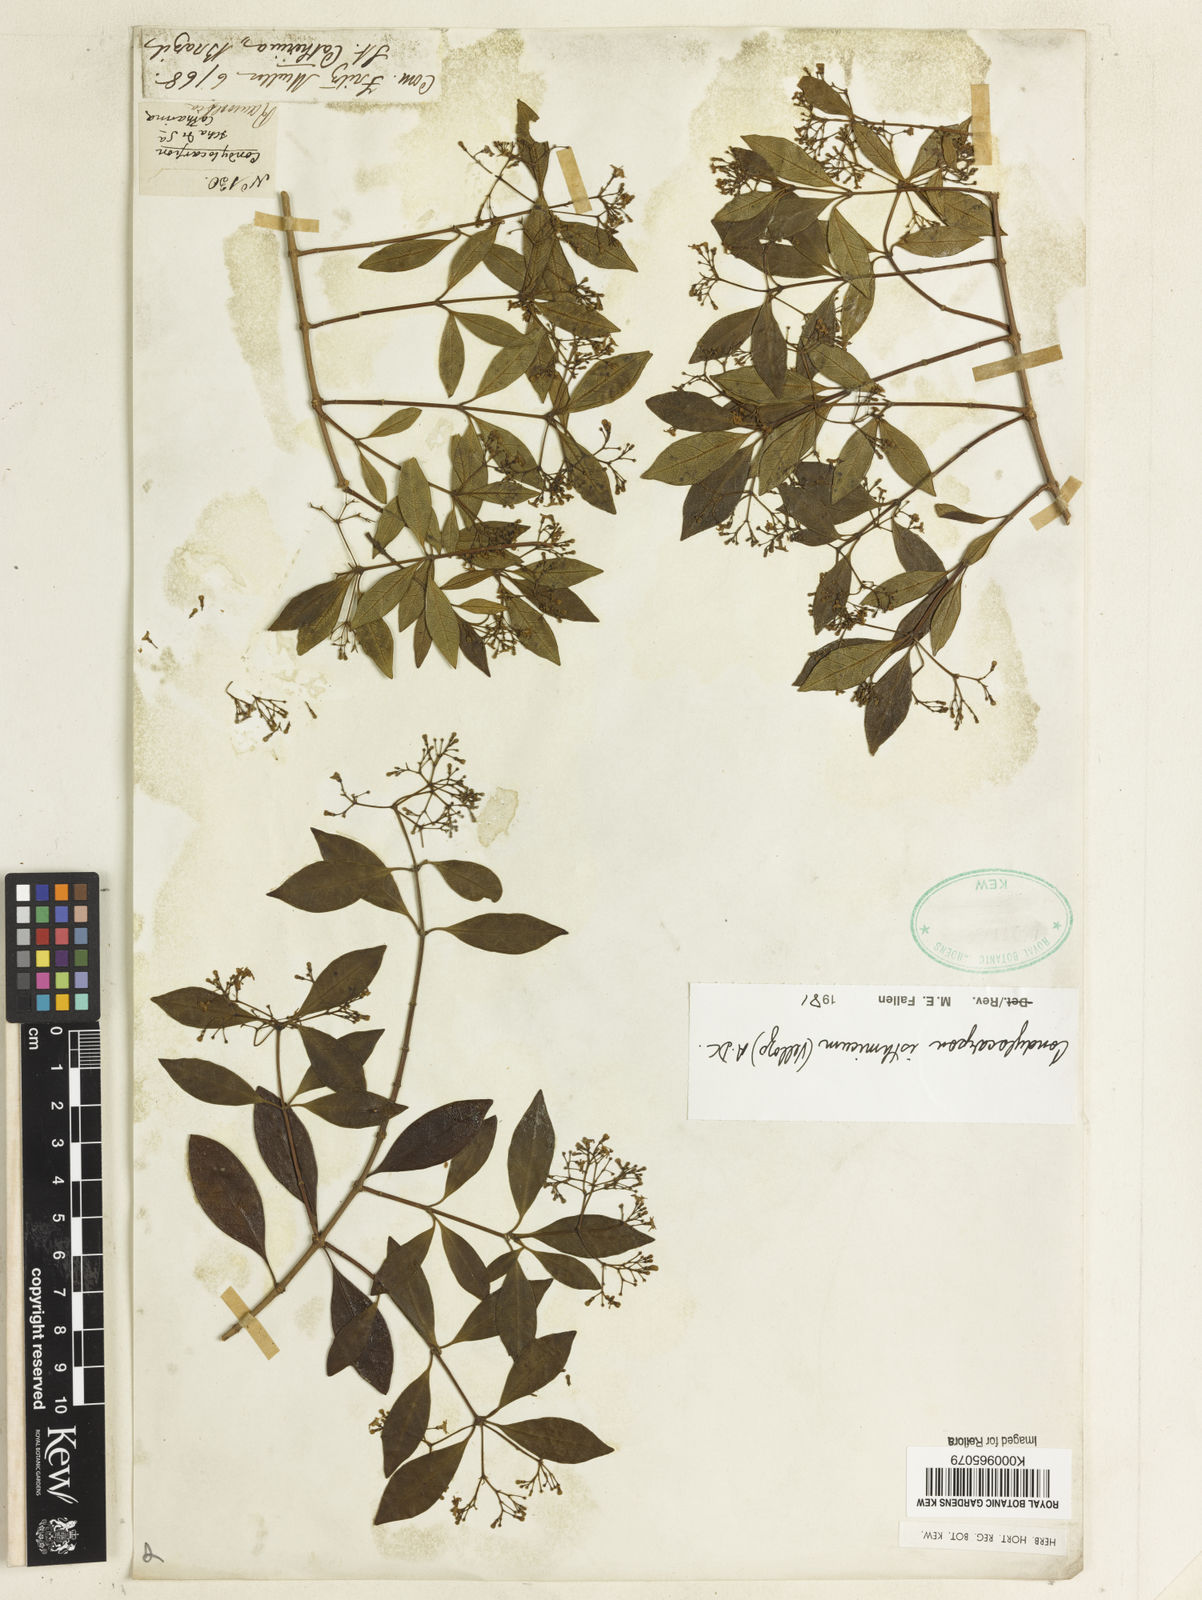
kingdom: Plantae
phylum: Tracheophyta
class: Magnoliopsida
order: Gentianales
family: Apocynaceae
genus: Condylocarpon
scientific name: Condylocarpon isthmicum
